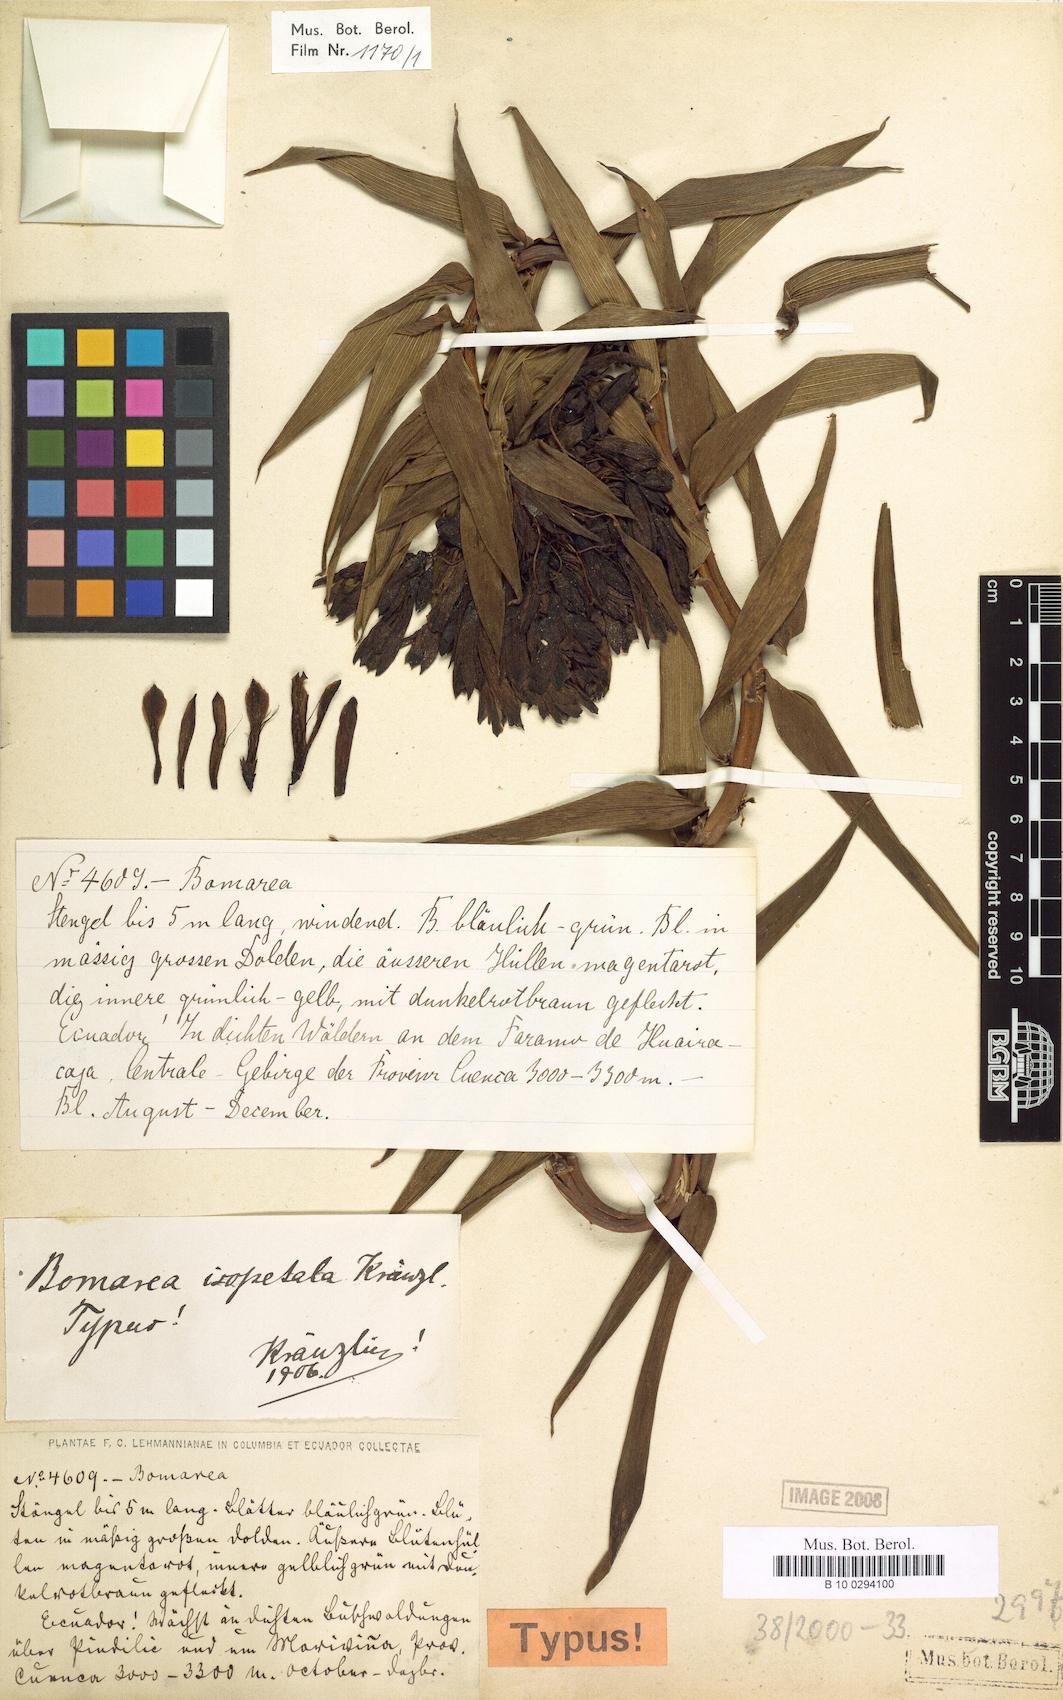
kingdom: Plantae
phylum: Tracheophyta
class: Liliopsida
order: Liliales
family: Alstroemeriaceae
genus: Bomarea
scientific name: Bomarea angulata
